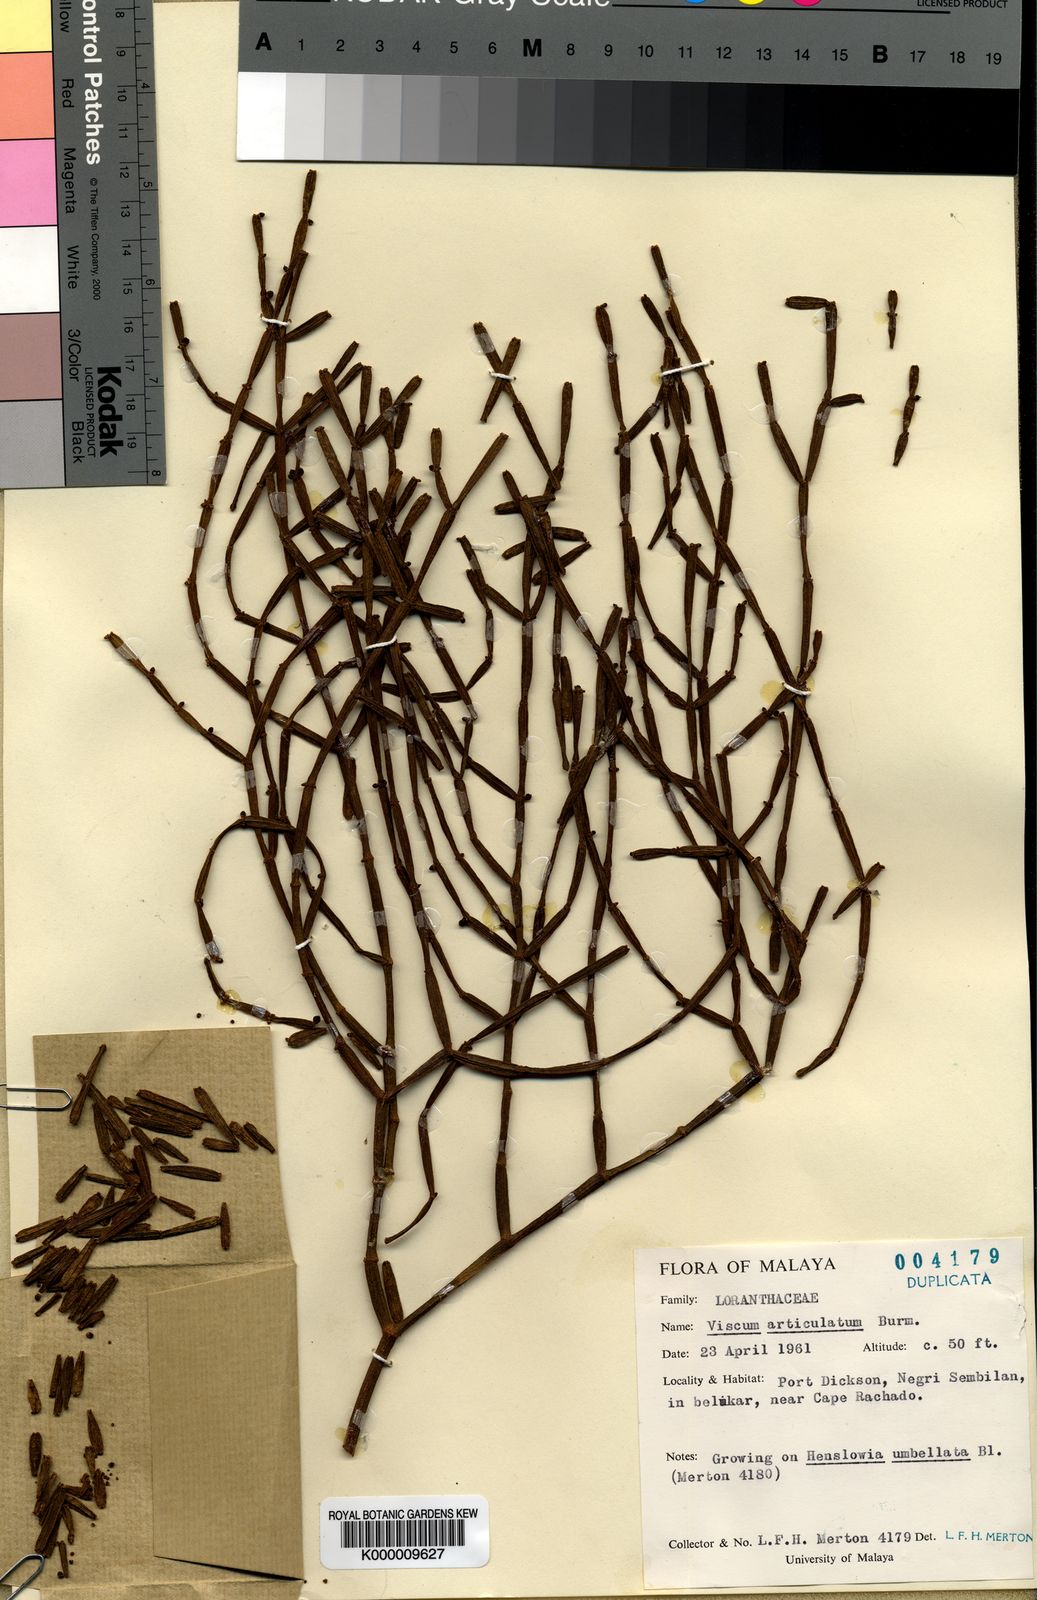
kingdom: Plantae
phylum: Tracheophyta
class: Magnoliopsida
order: Santalales
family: Viscaceae
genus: Viscum
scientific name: Viscum articulatum
